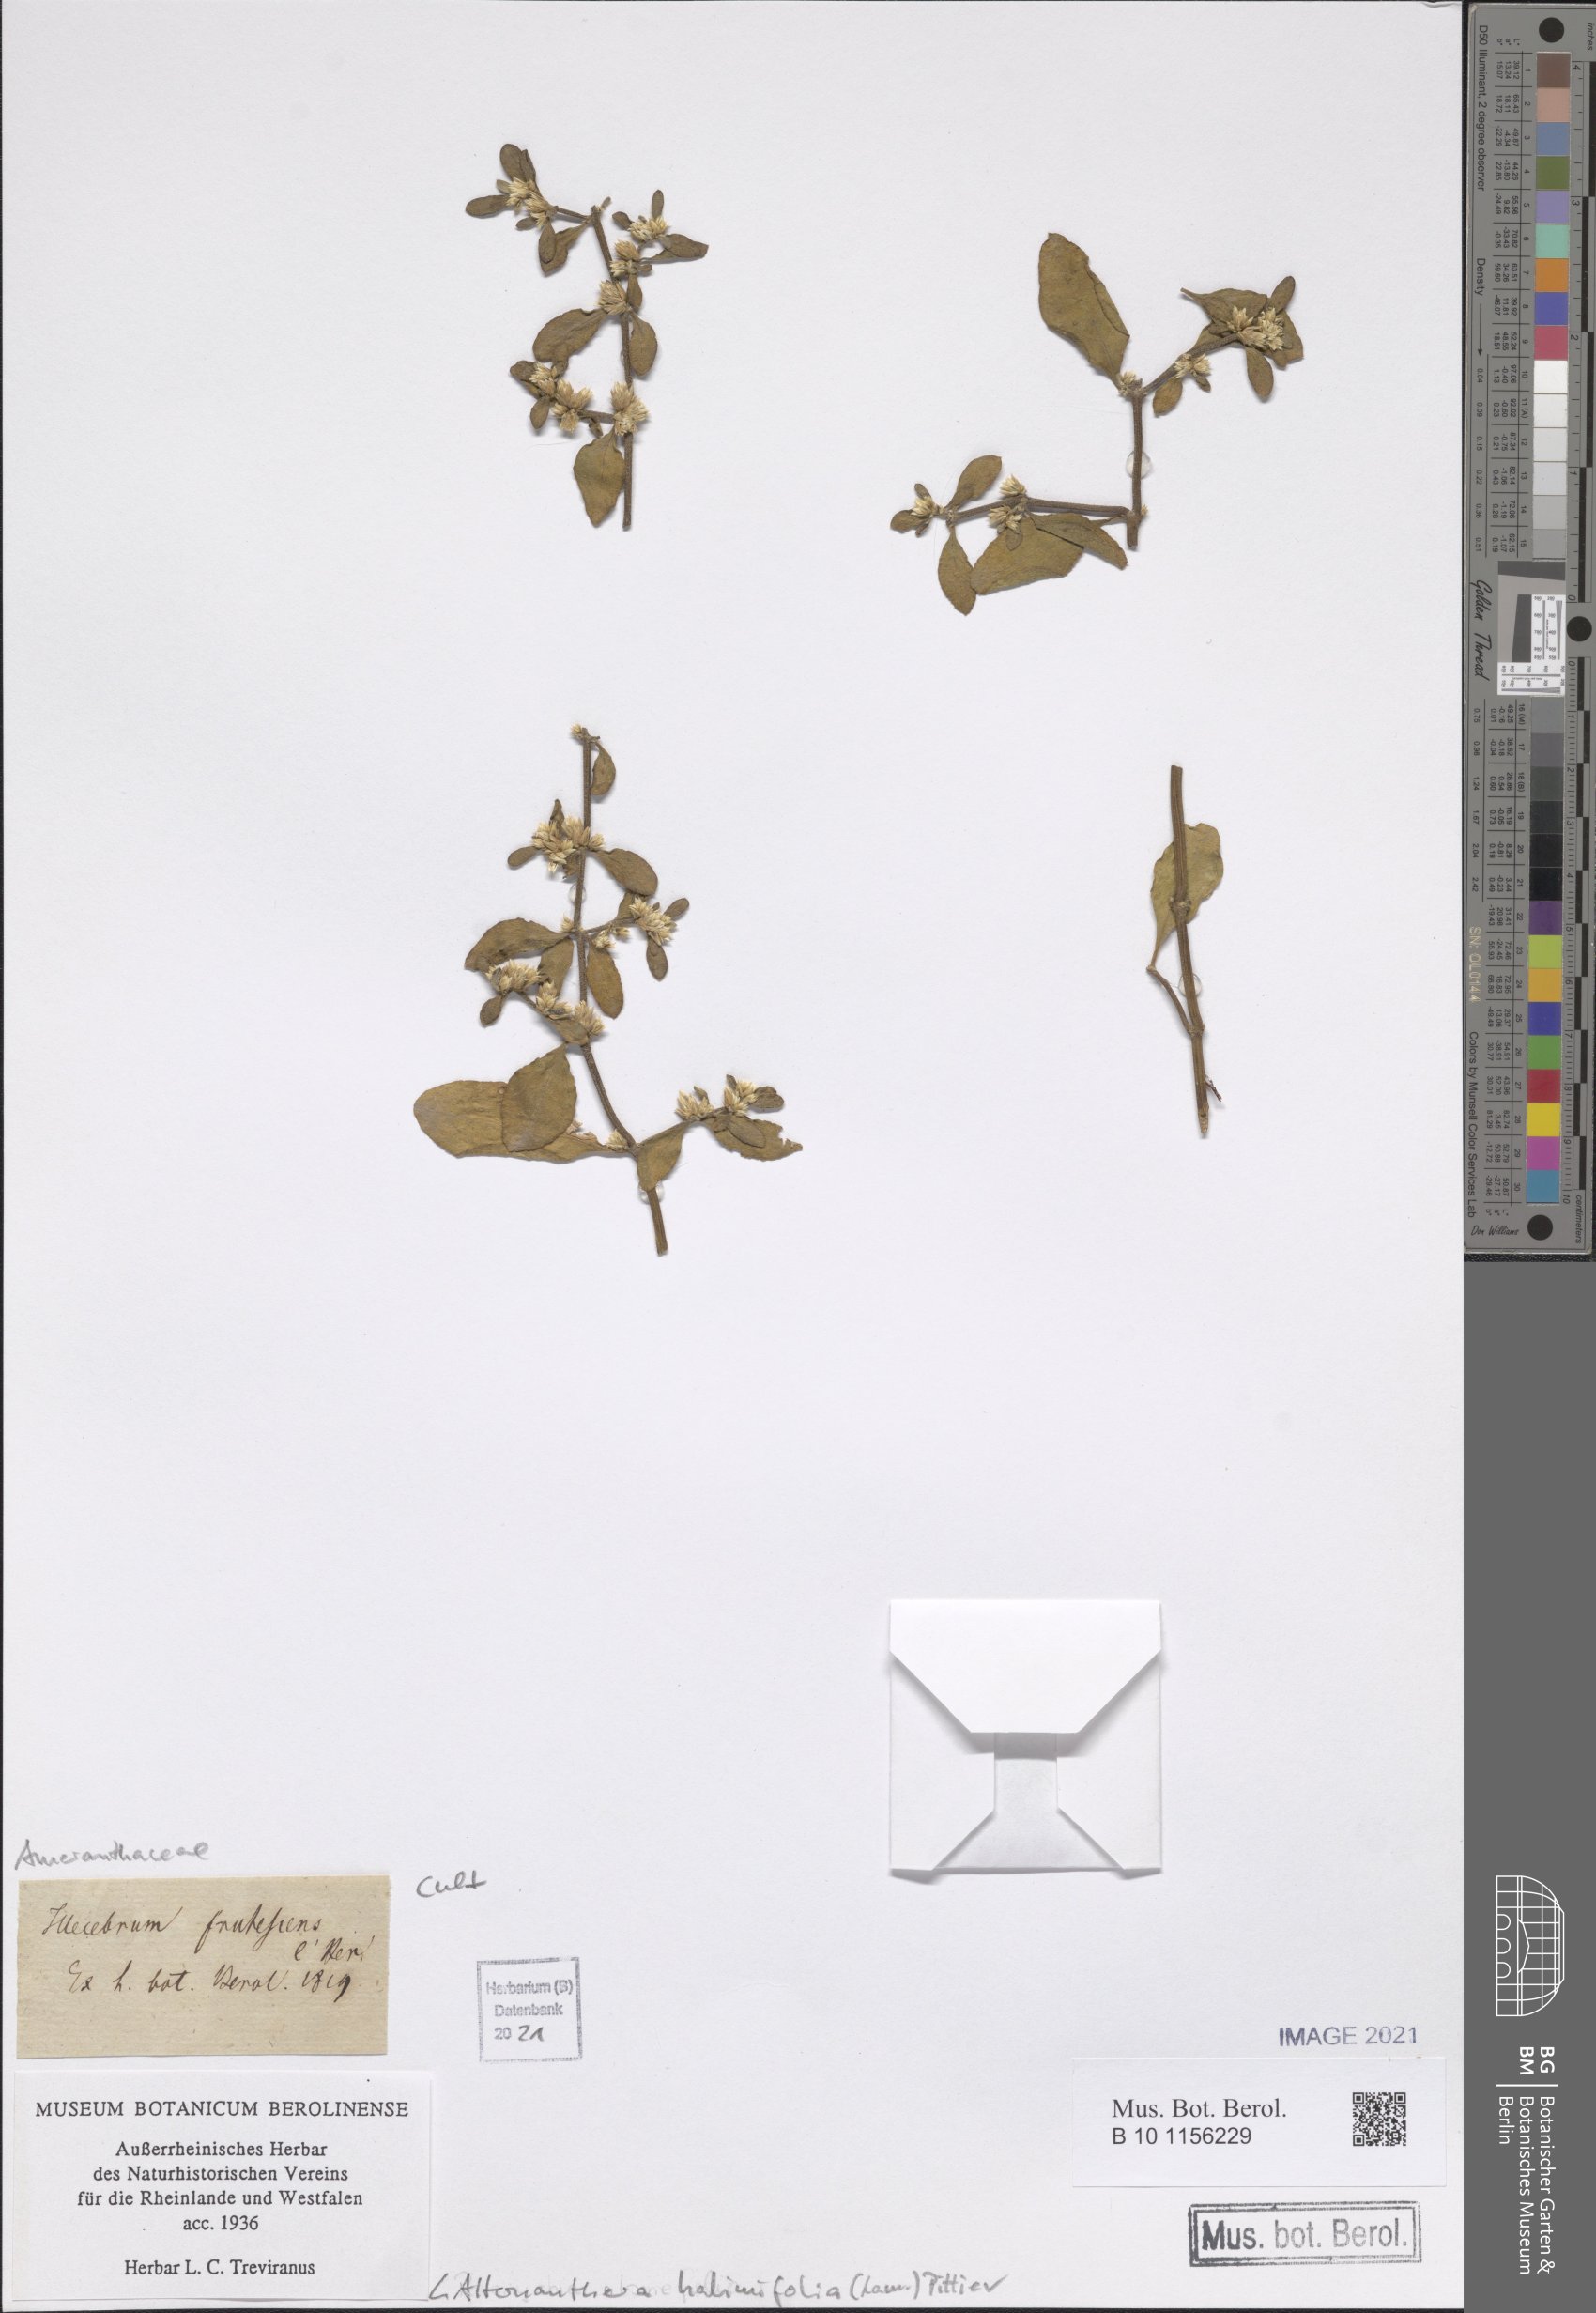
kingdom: Plantae
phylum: Tracheophyta
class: Magnoliopsida
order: Caryophyllales
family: Amaranthaceae
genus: Alternanthera
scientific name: Alternanthera halimifolia
